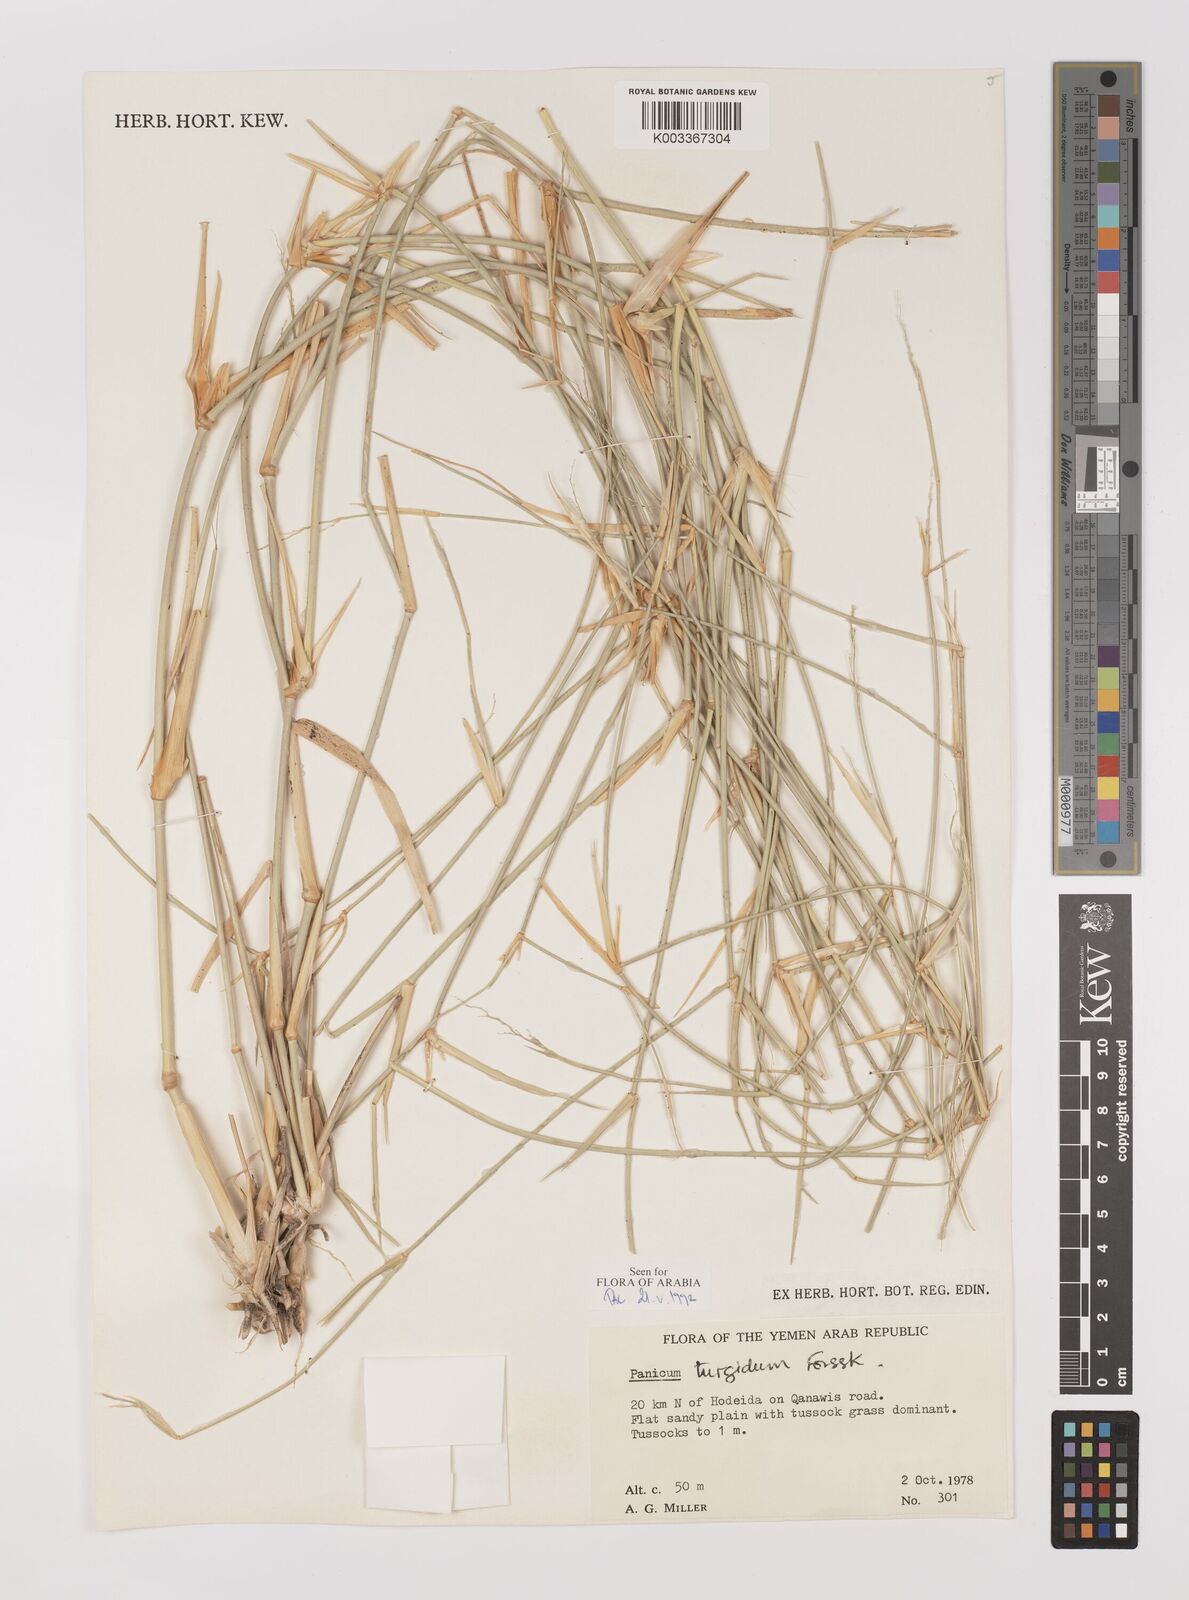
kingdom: Plantae
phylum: Tracheophyta
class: Liliopsida
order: Poales
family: Poaceae
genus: Panicum
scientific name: Panicum turgidum
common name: Desert grass
